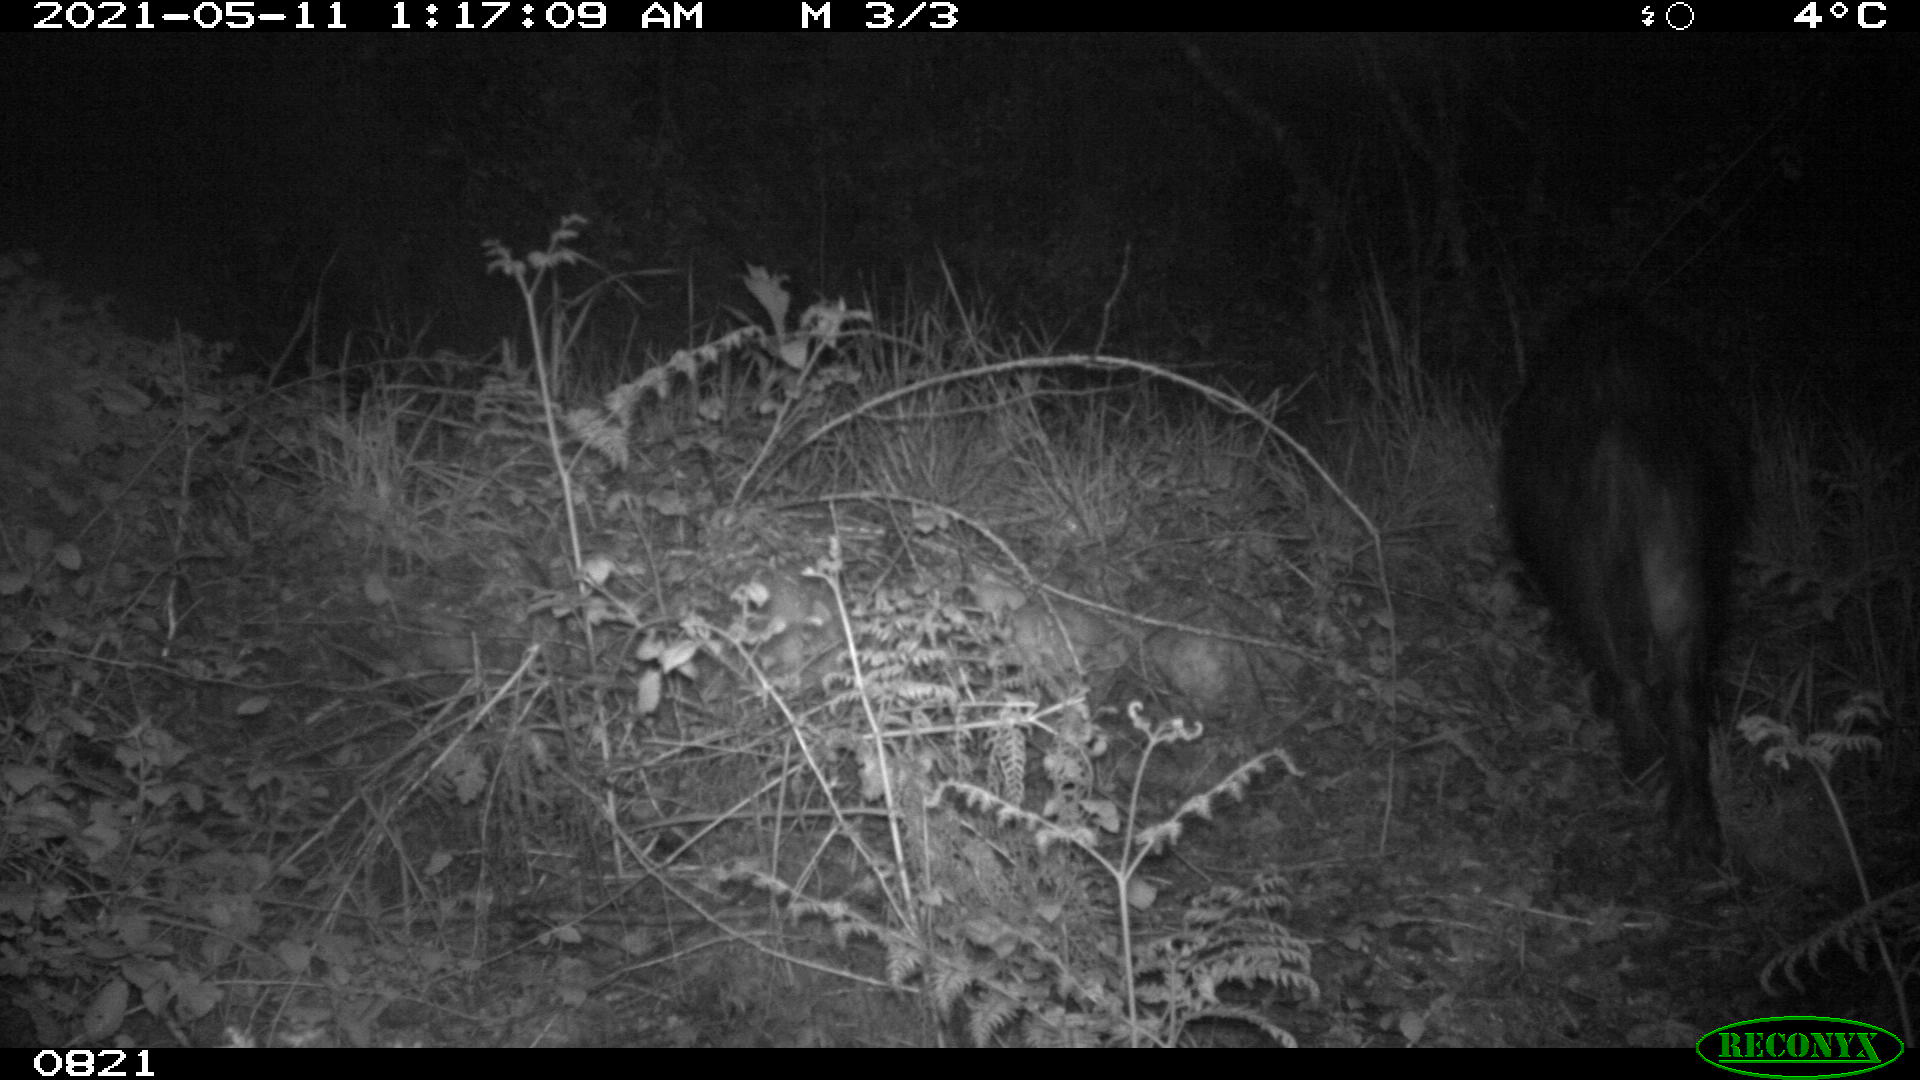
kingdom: Animalia
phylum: Chordata
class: Mammalia
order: Artiodactyla
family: Suidae
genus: Sus
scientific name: Sus scrofa
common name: Wild boar
